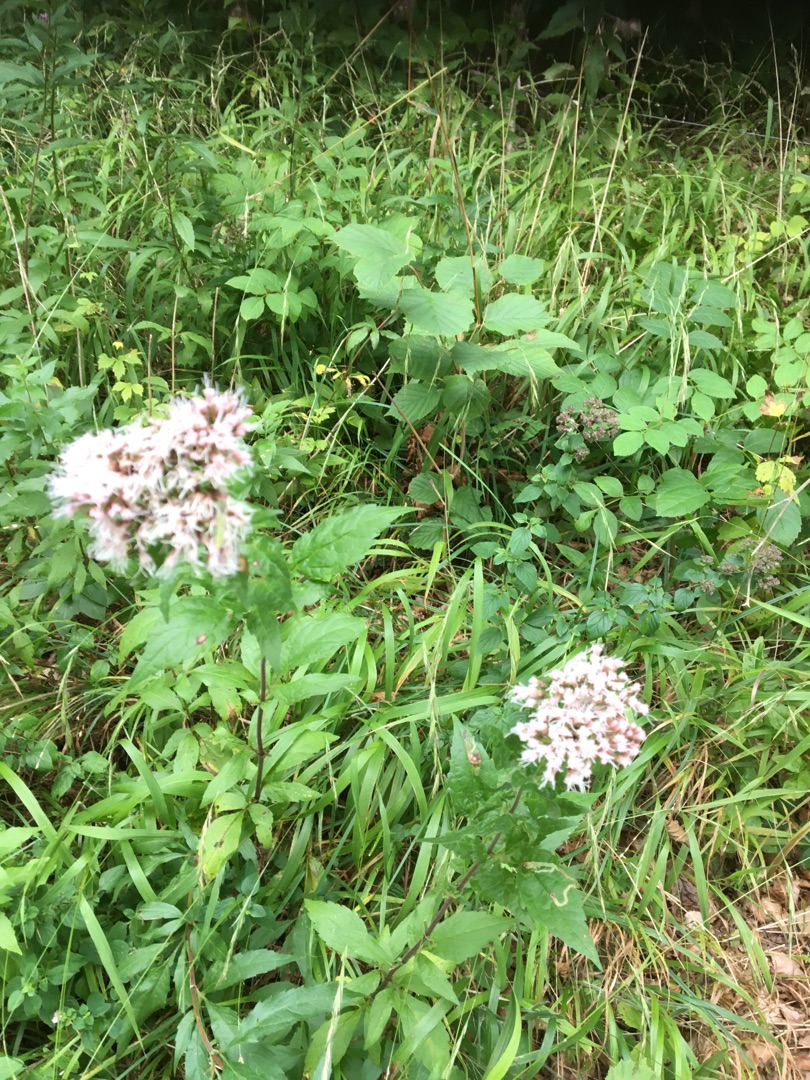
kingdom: Plantae
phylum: Tracheophyta
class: Magnoliopsida
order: Asterales
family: Asteraceae
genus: Eupatorium
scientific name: Eupatorium cannabinum
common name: Hjortetrøst
